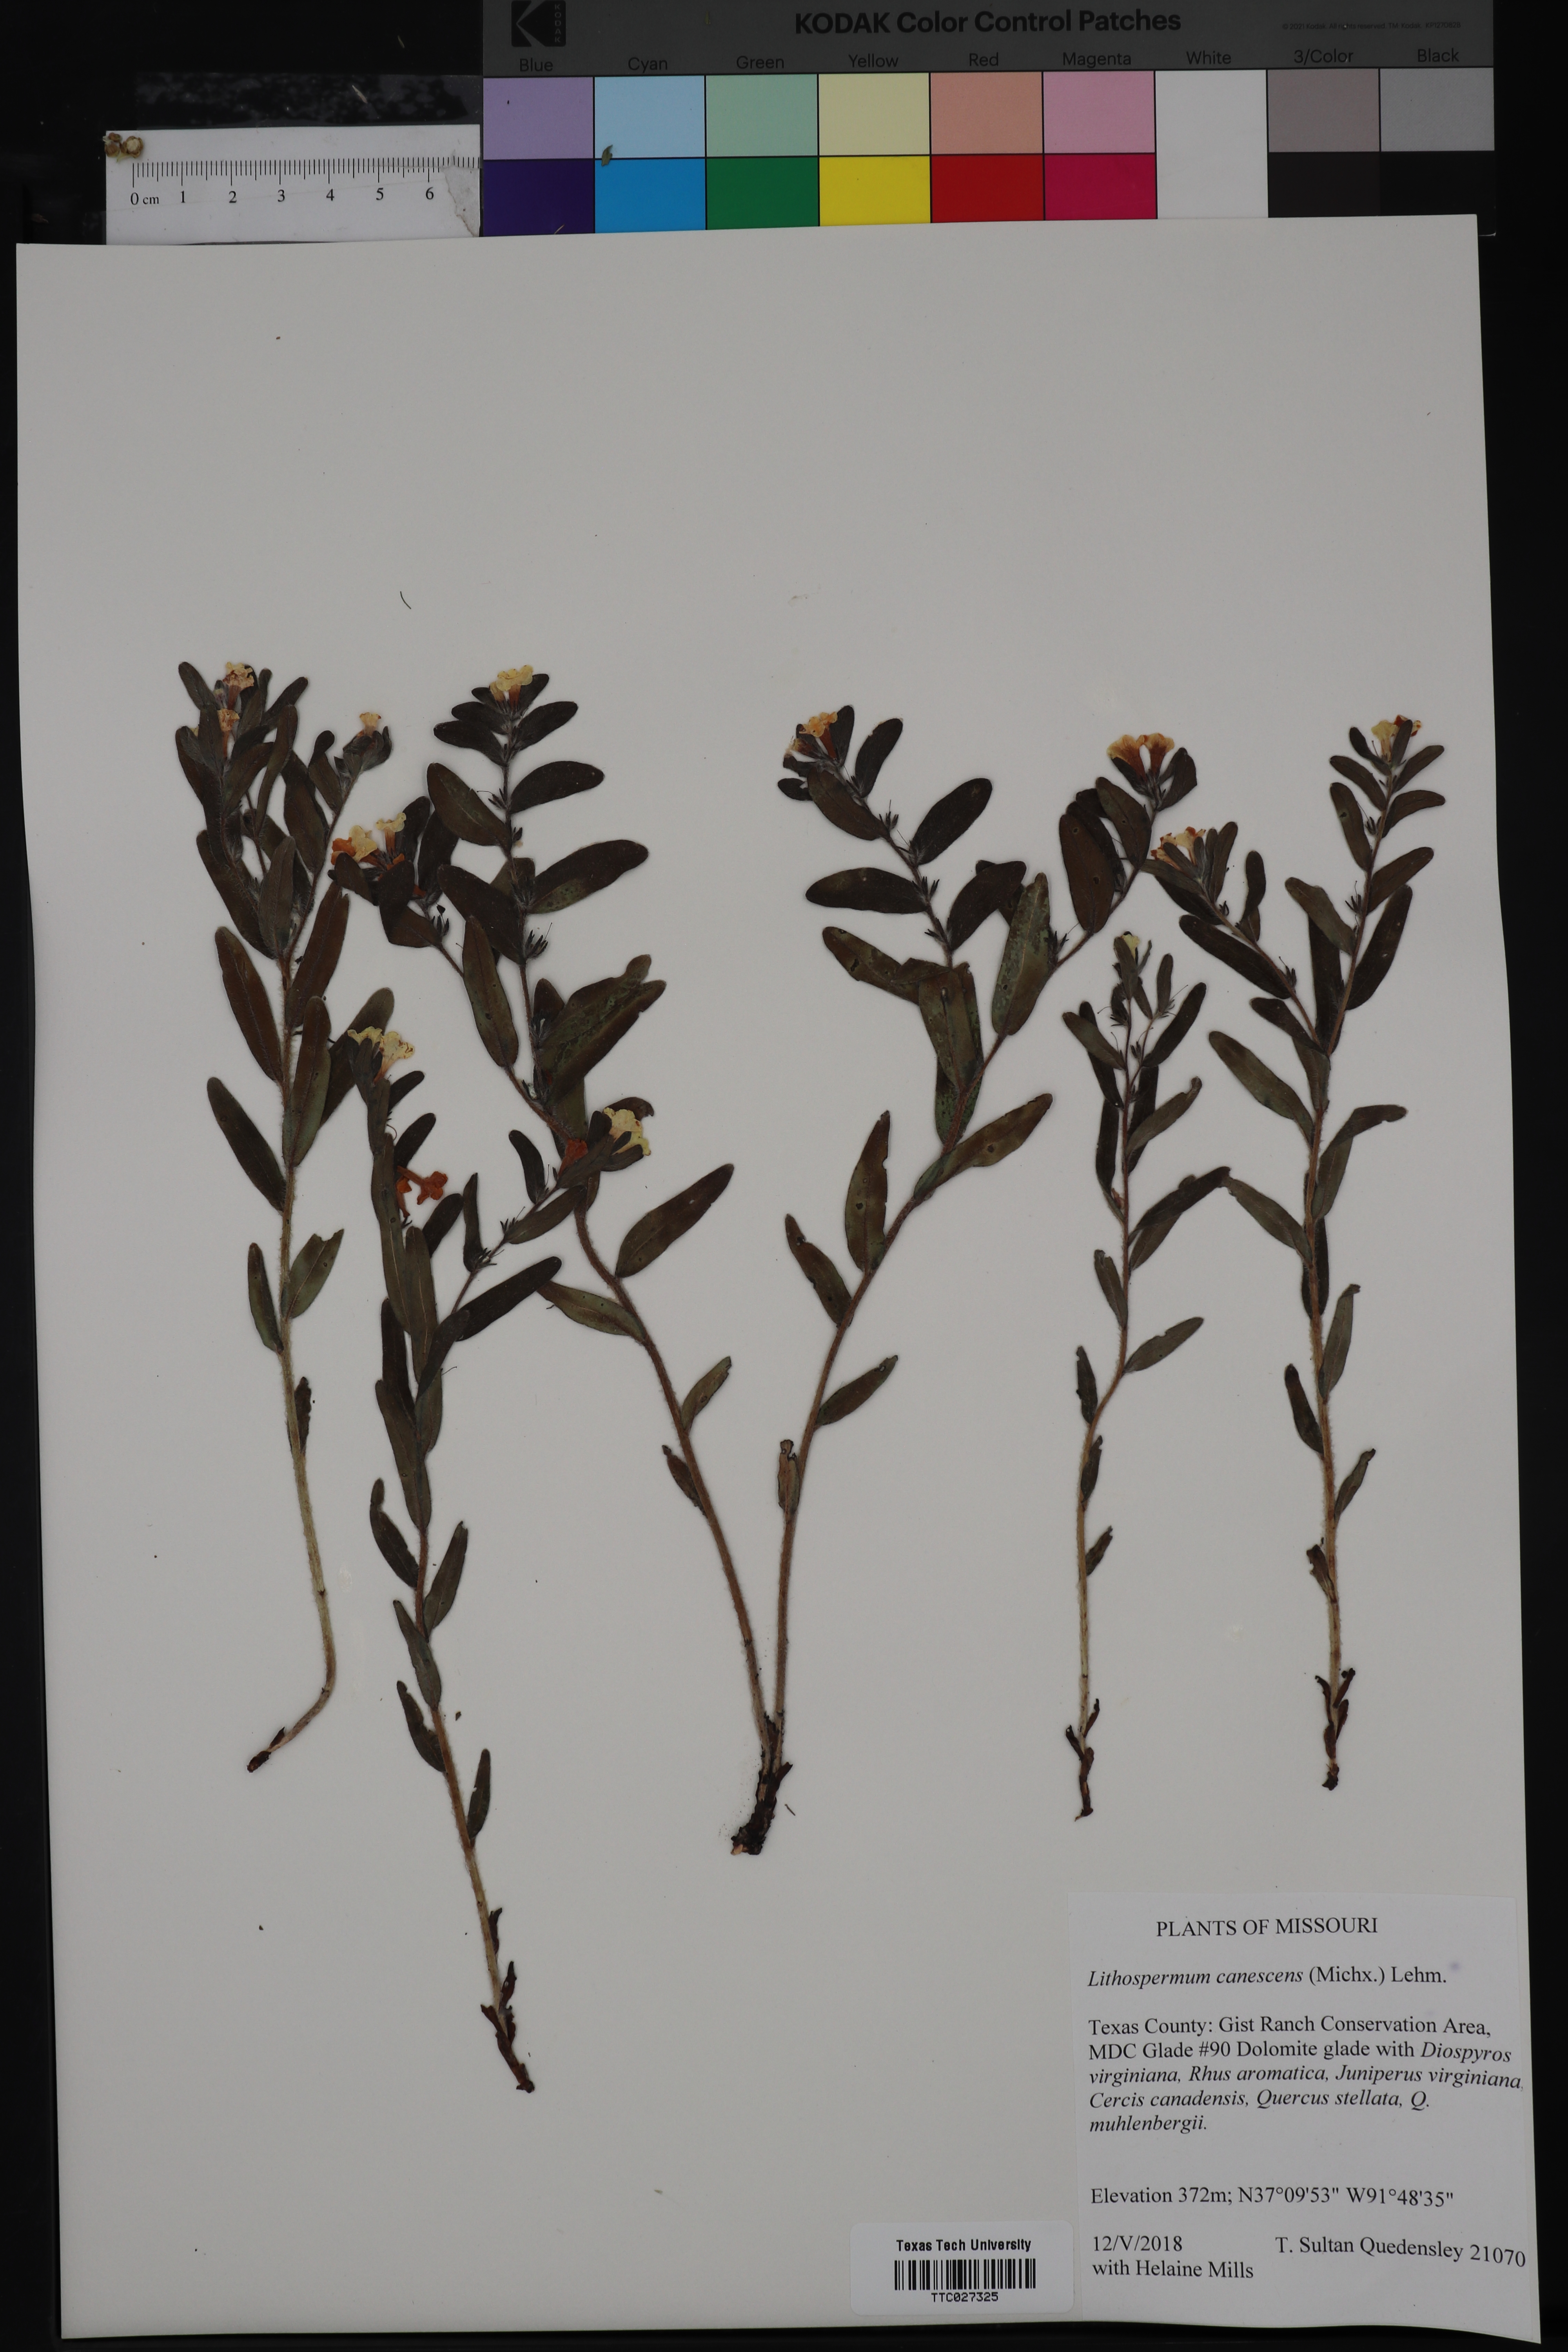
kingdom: Plantae
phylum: Tracheophyta
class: Magnoliopsida
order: Boraginales
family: Boraginaceae
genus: Lithospermum
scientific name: Lithospermum canescens
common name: Hoary puccoon
